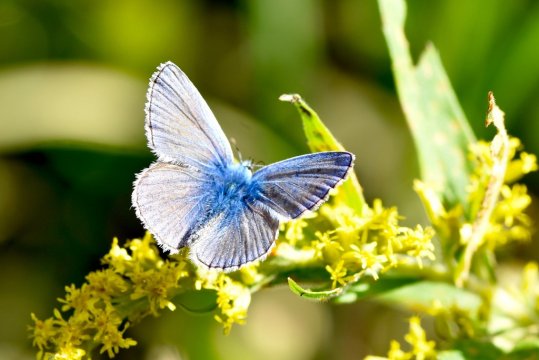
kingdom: Animalia
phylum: Arthropoda
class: Insecta
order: Lepidoptera
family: Lycaenidae
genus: Polyommatus
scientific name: Polyommatus icarus
